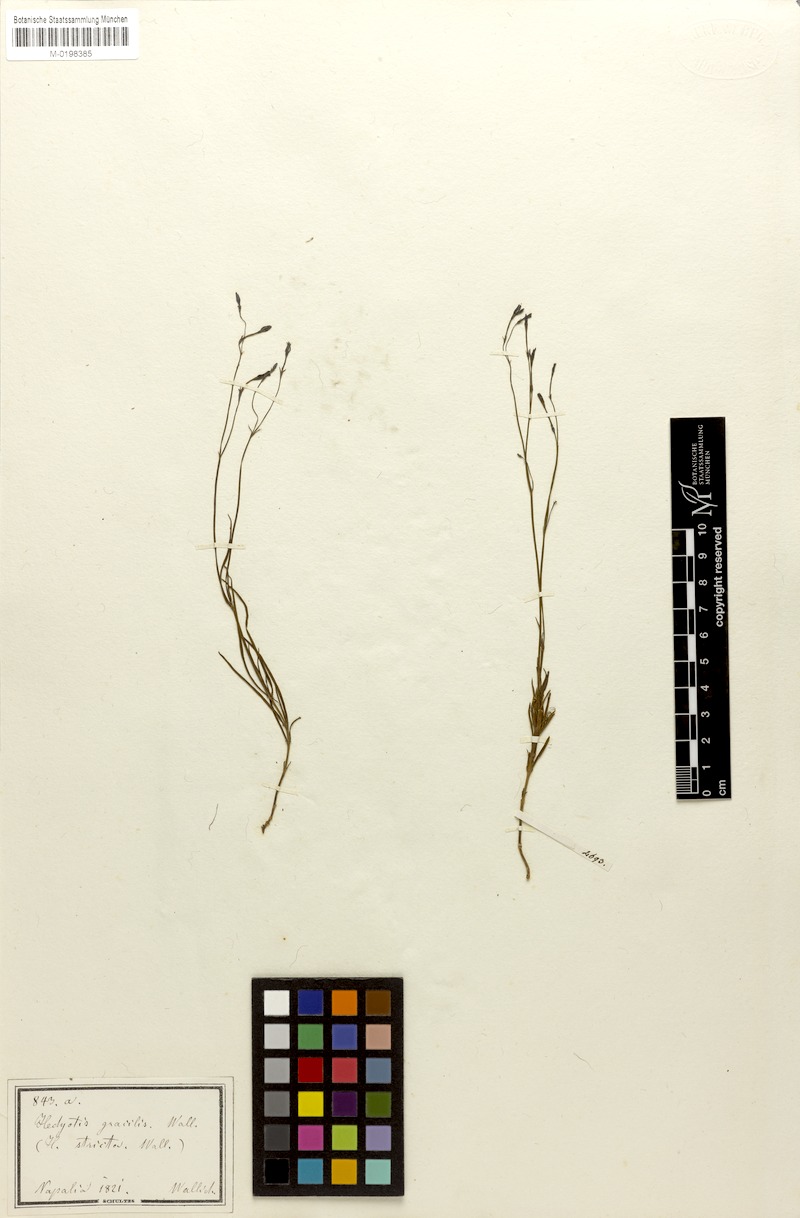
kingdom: Plantae
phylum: Tracheophyta
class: Magnoliopsida
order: Gentianales
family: Rubiaceae
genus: Kohautia
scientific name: Kohautia gracilis
